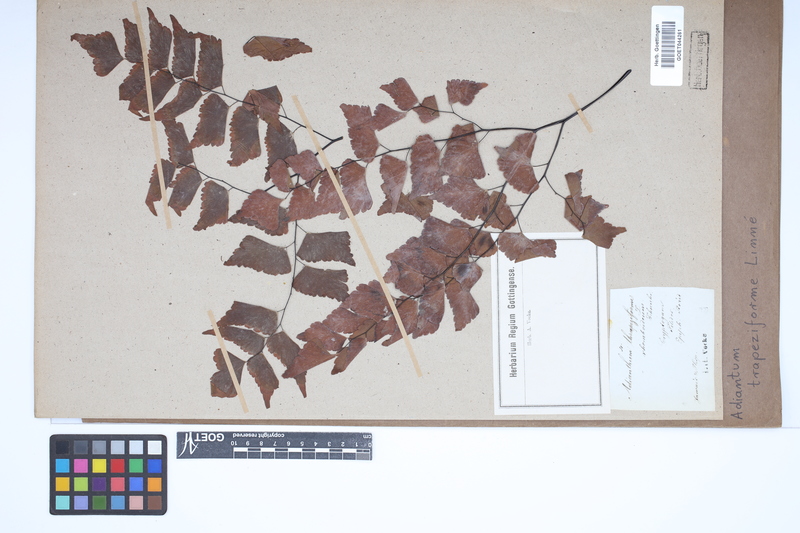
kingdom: Plantae
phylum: Tracheophyta
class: Polypodiopsida
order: Polypodiales
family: Pteridaceae
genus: Adiantum
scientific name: Adiantum trapeziforme
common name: Diamond maidenhair
